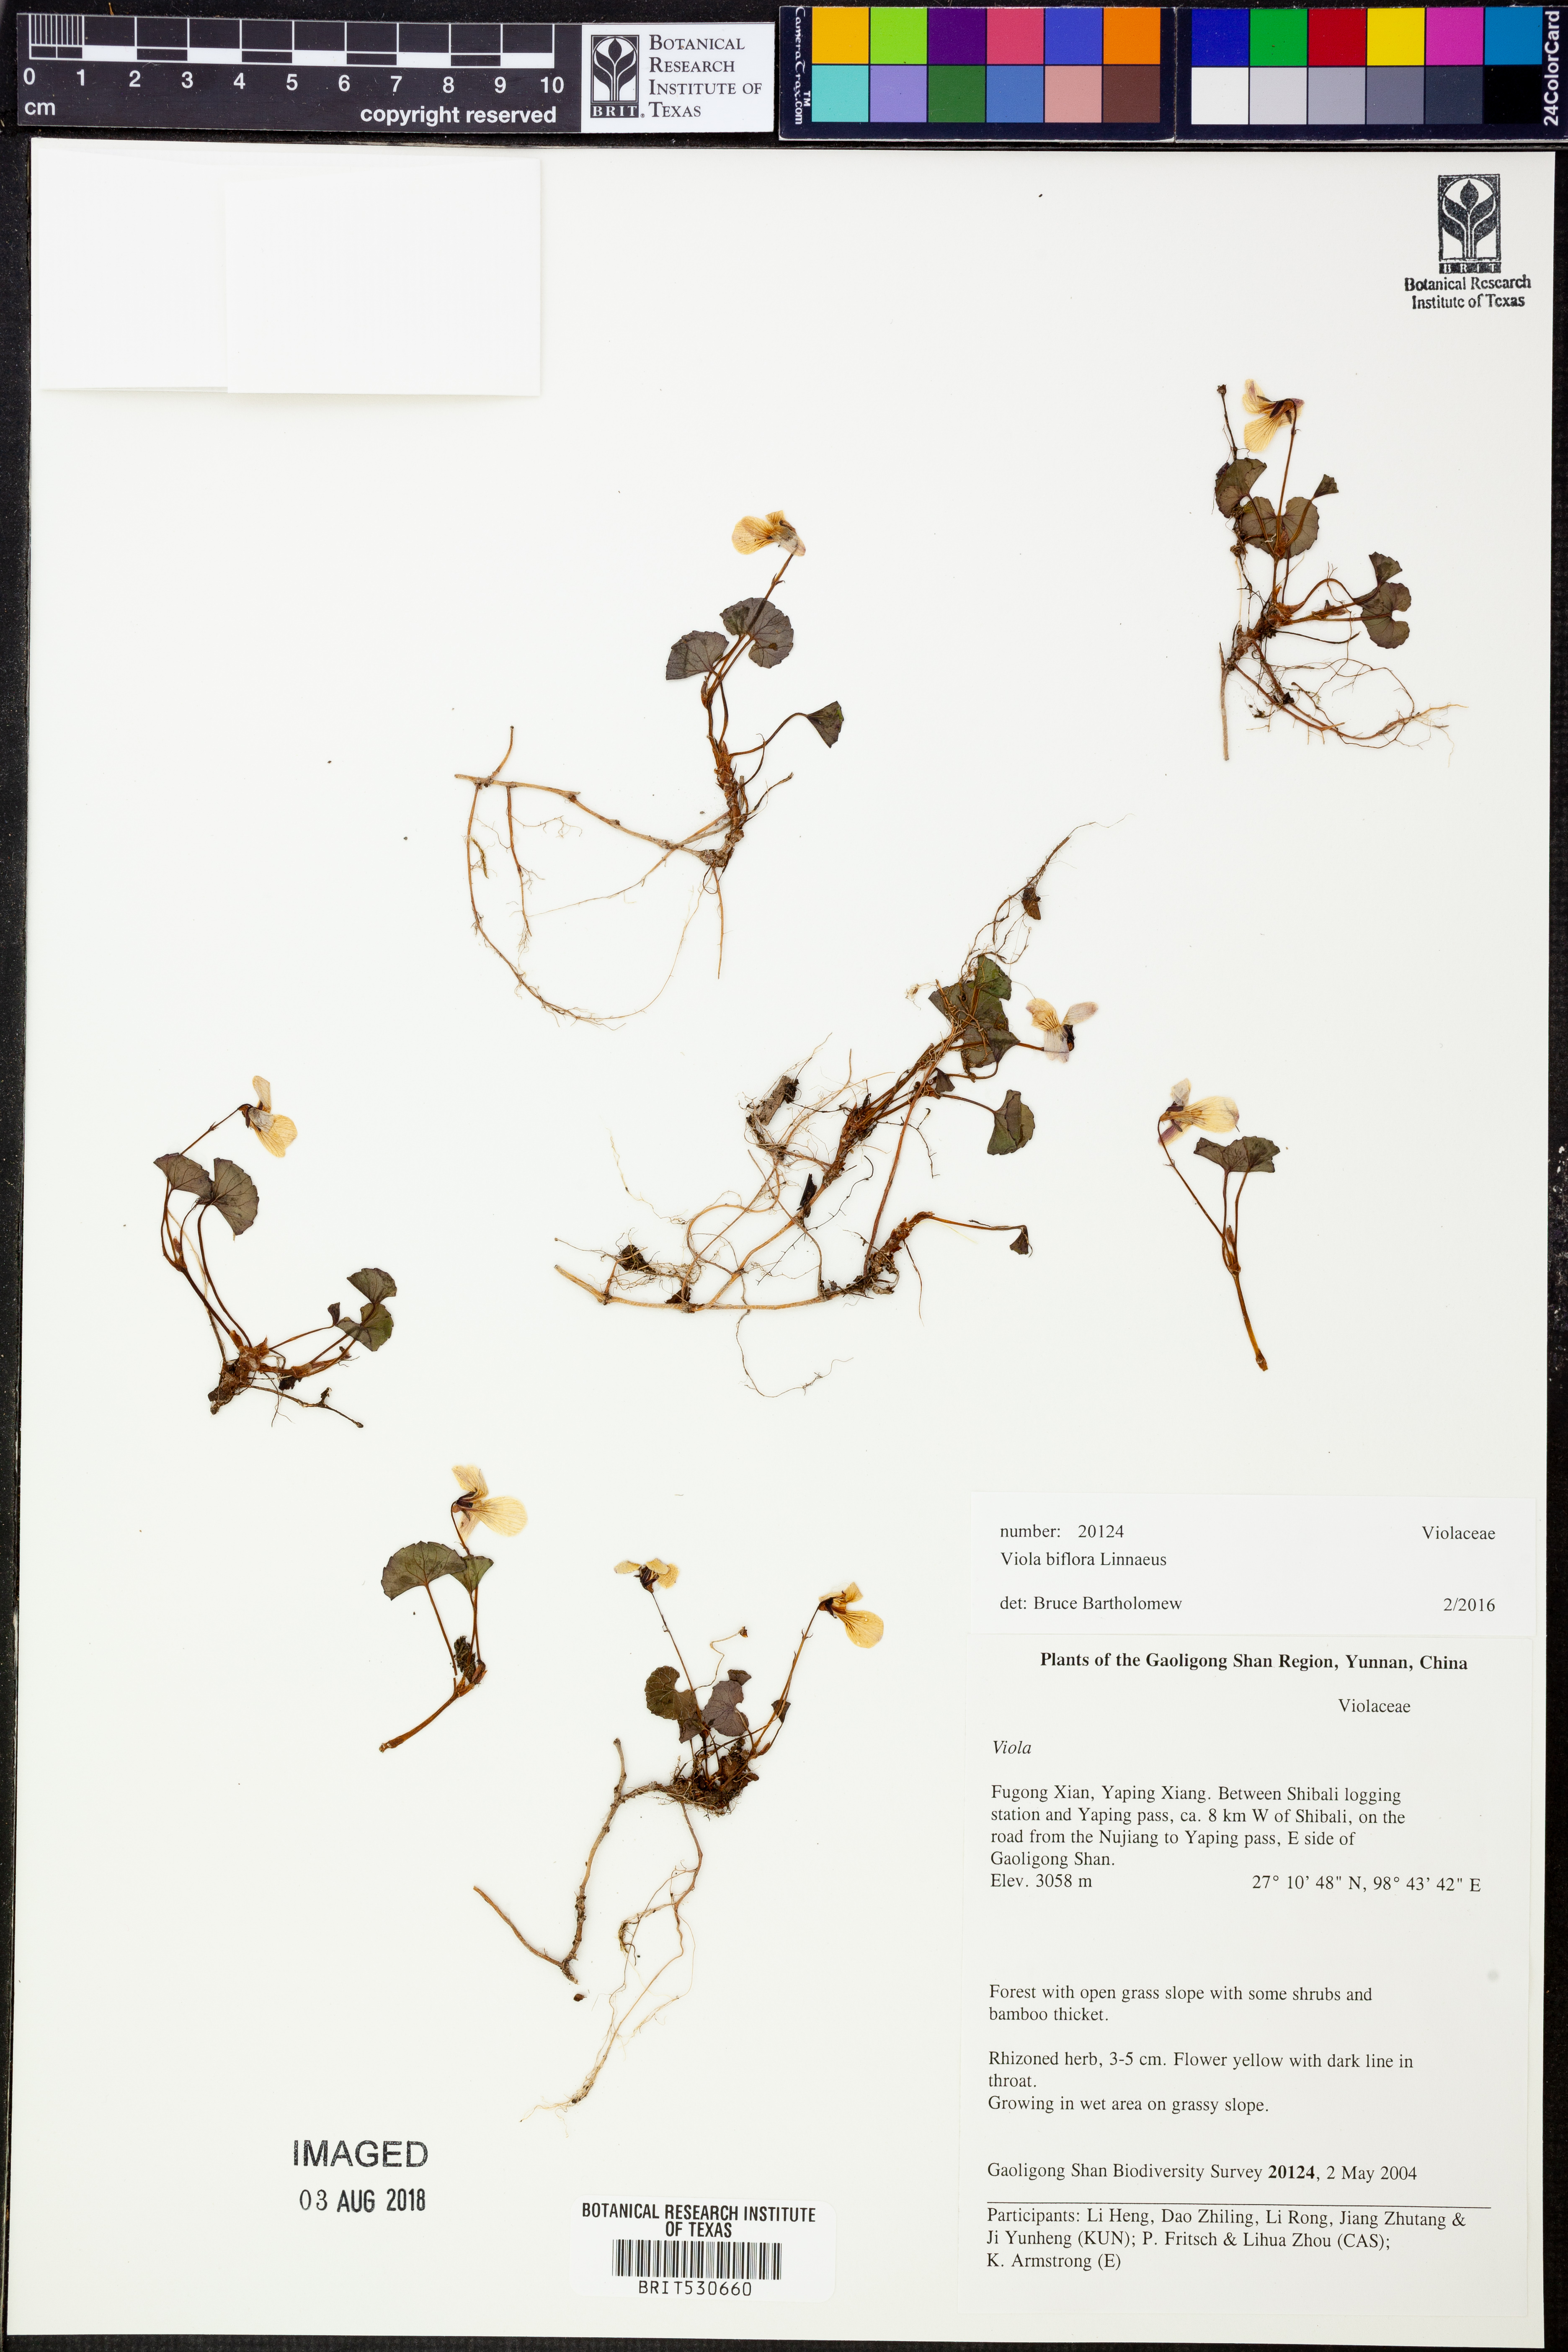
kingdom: Plantae
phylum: Tracheophyta
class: Magnoliopsida
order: Malpighiales
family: Violaceae
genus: Viola
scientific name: Viola biflora
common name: Alpine yellow violet
